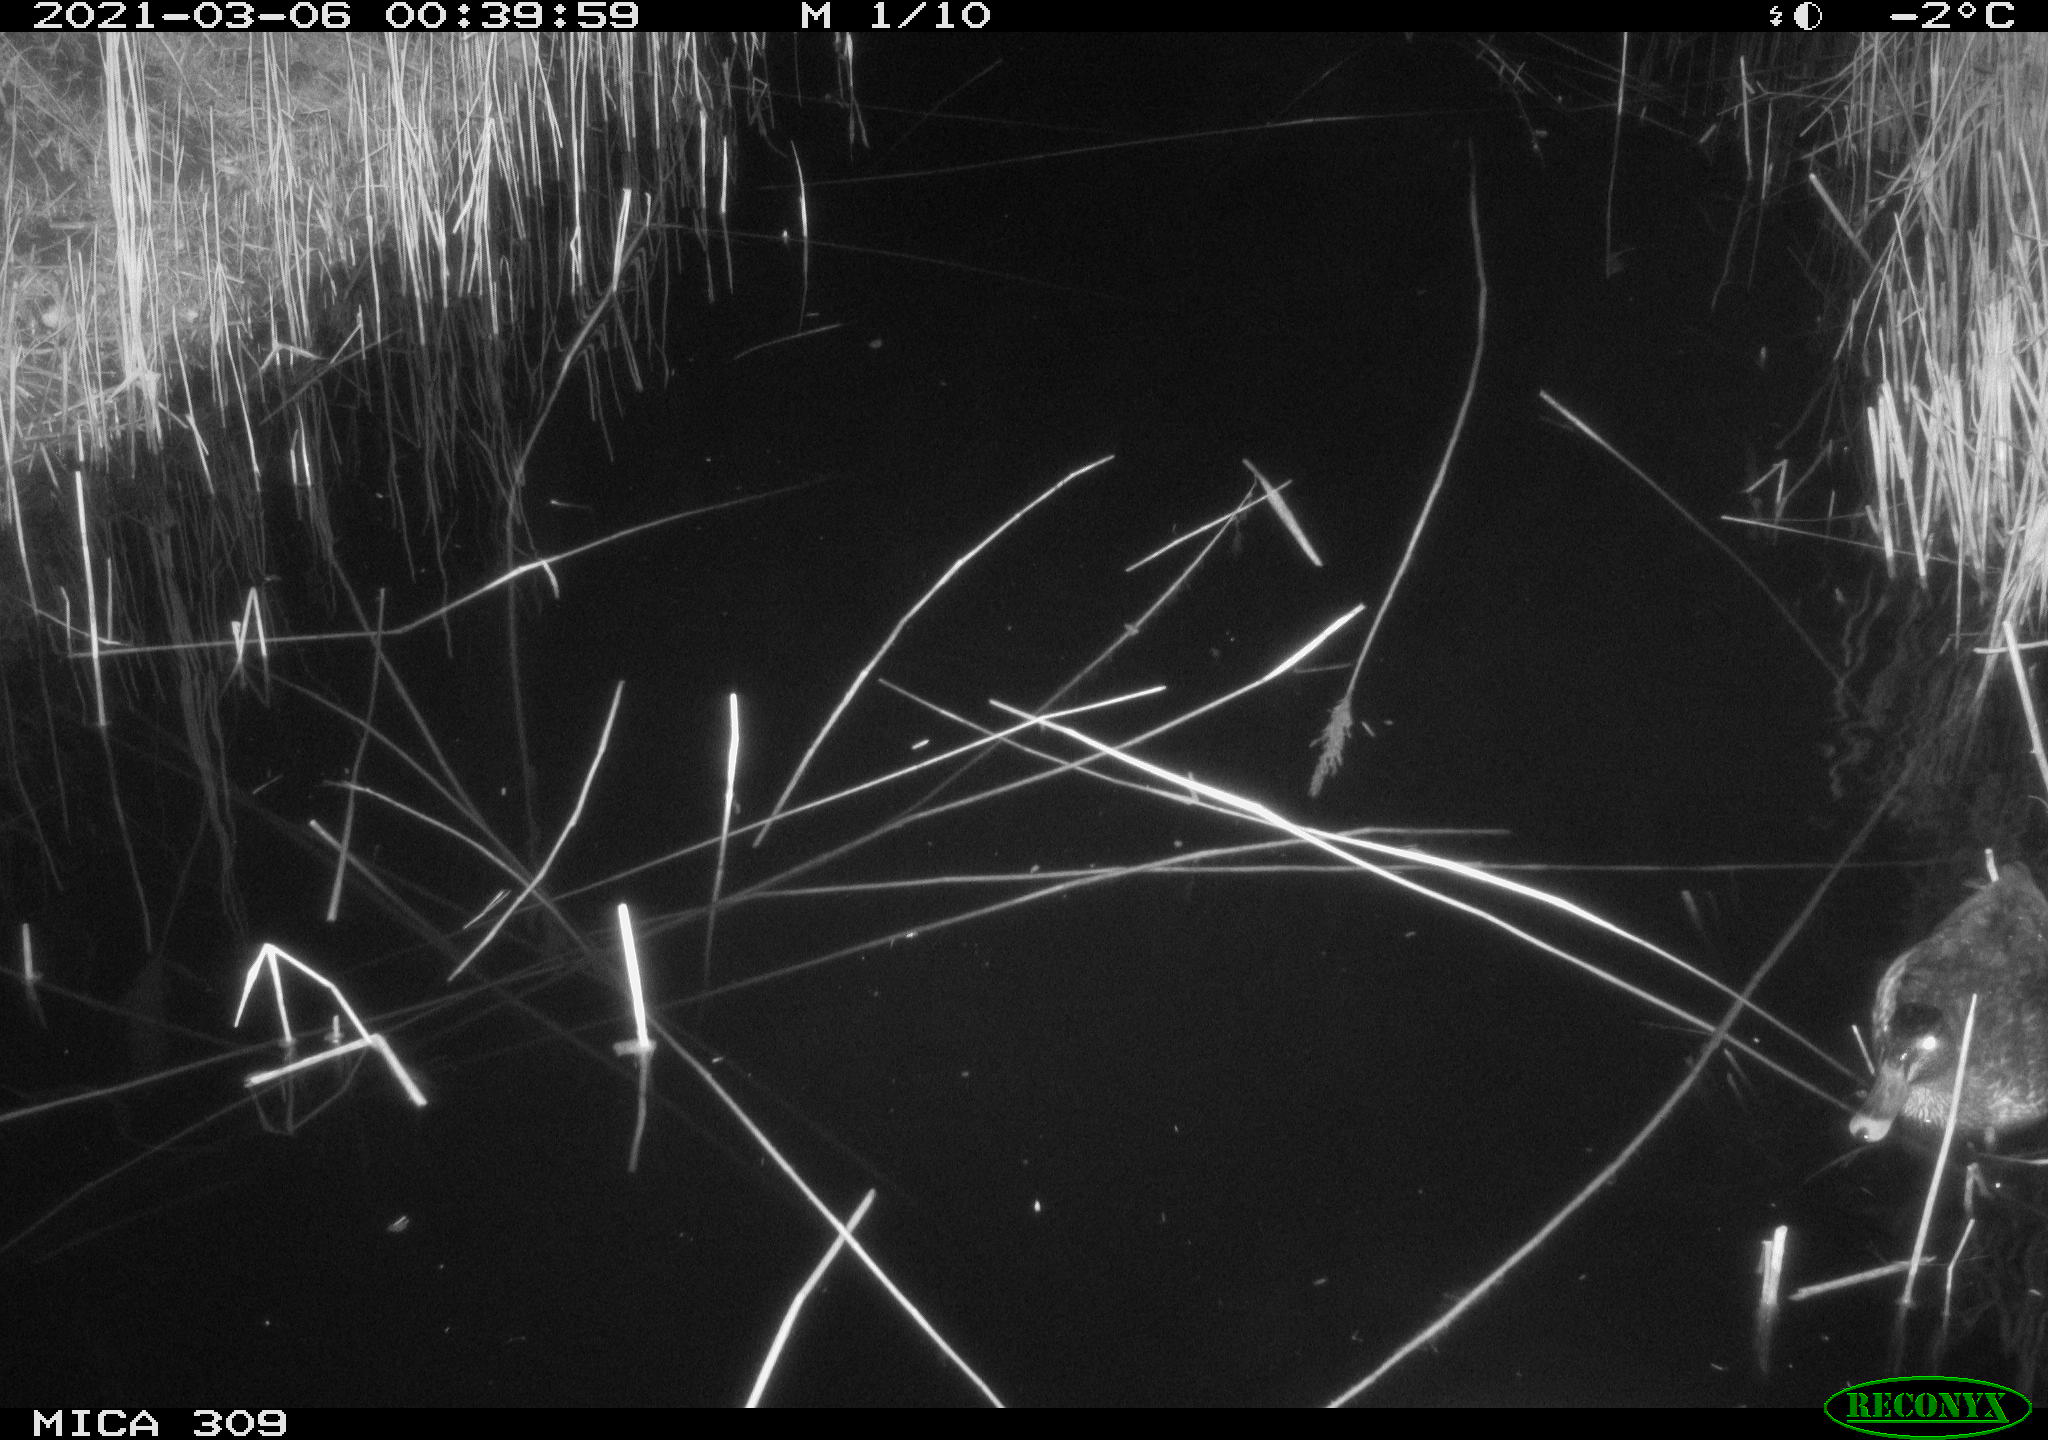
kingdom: Animalia
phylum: Chordata
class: Aves
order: Anseriformes
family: Anatidae
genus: Anas
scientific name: Anas platyrhynchos
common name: Mallard
